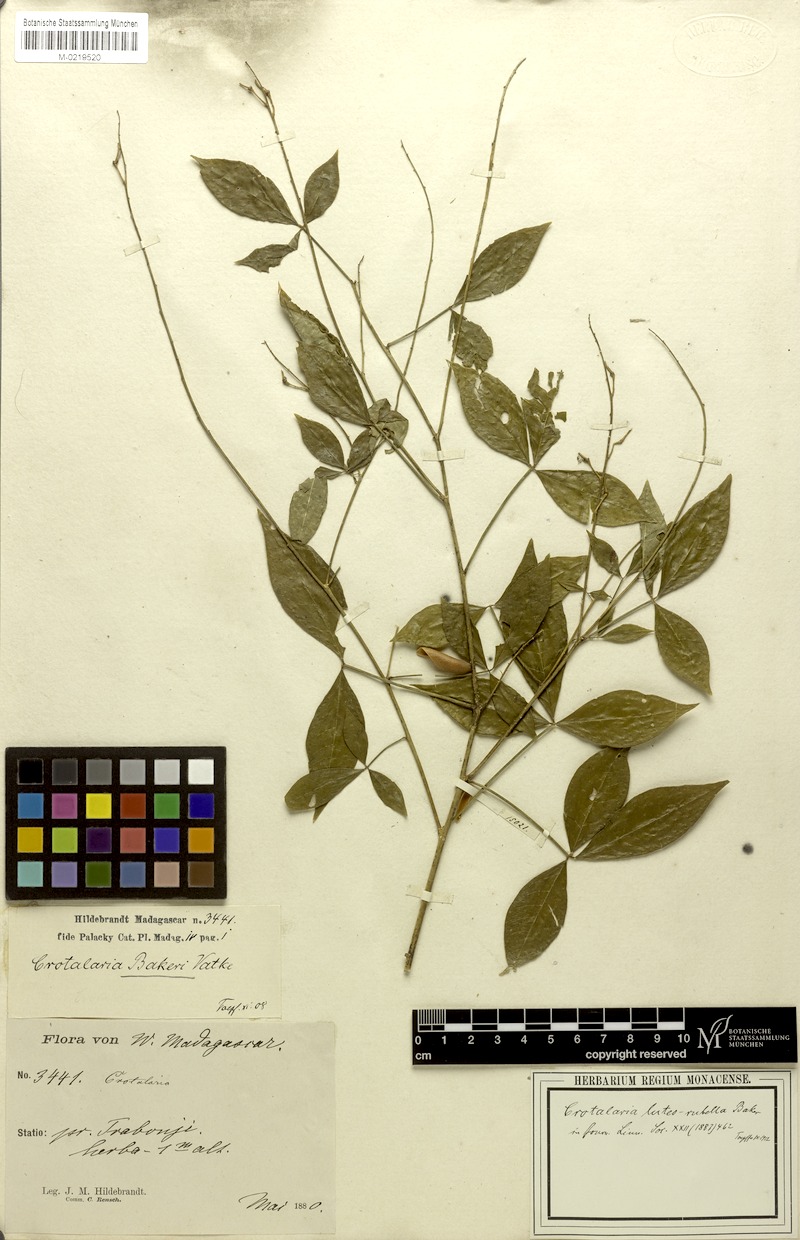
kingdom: Plantae
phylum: Tracheophyta
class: Magnoliopsida
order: Fabales
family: Fabaceae
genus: Crotalaria
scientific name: Crotalaria pervillei
